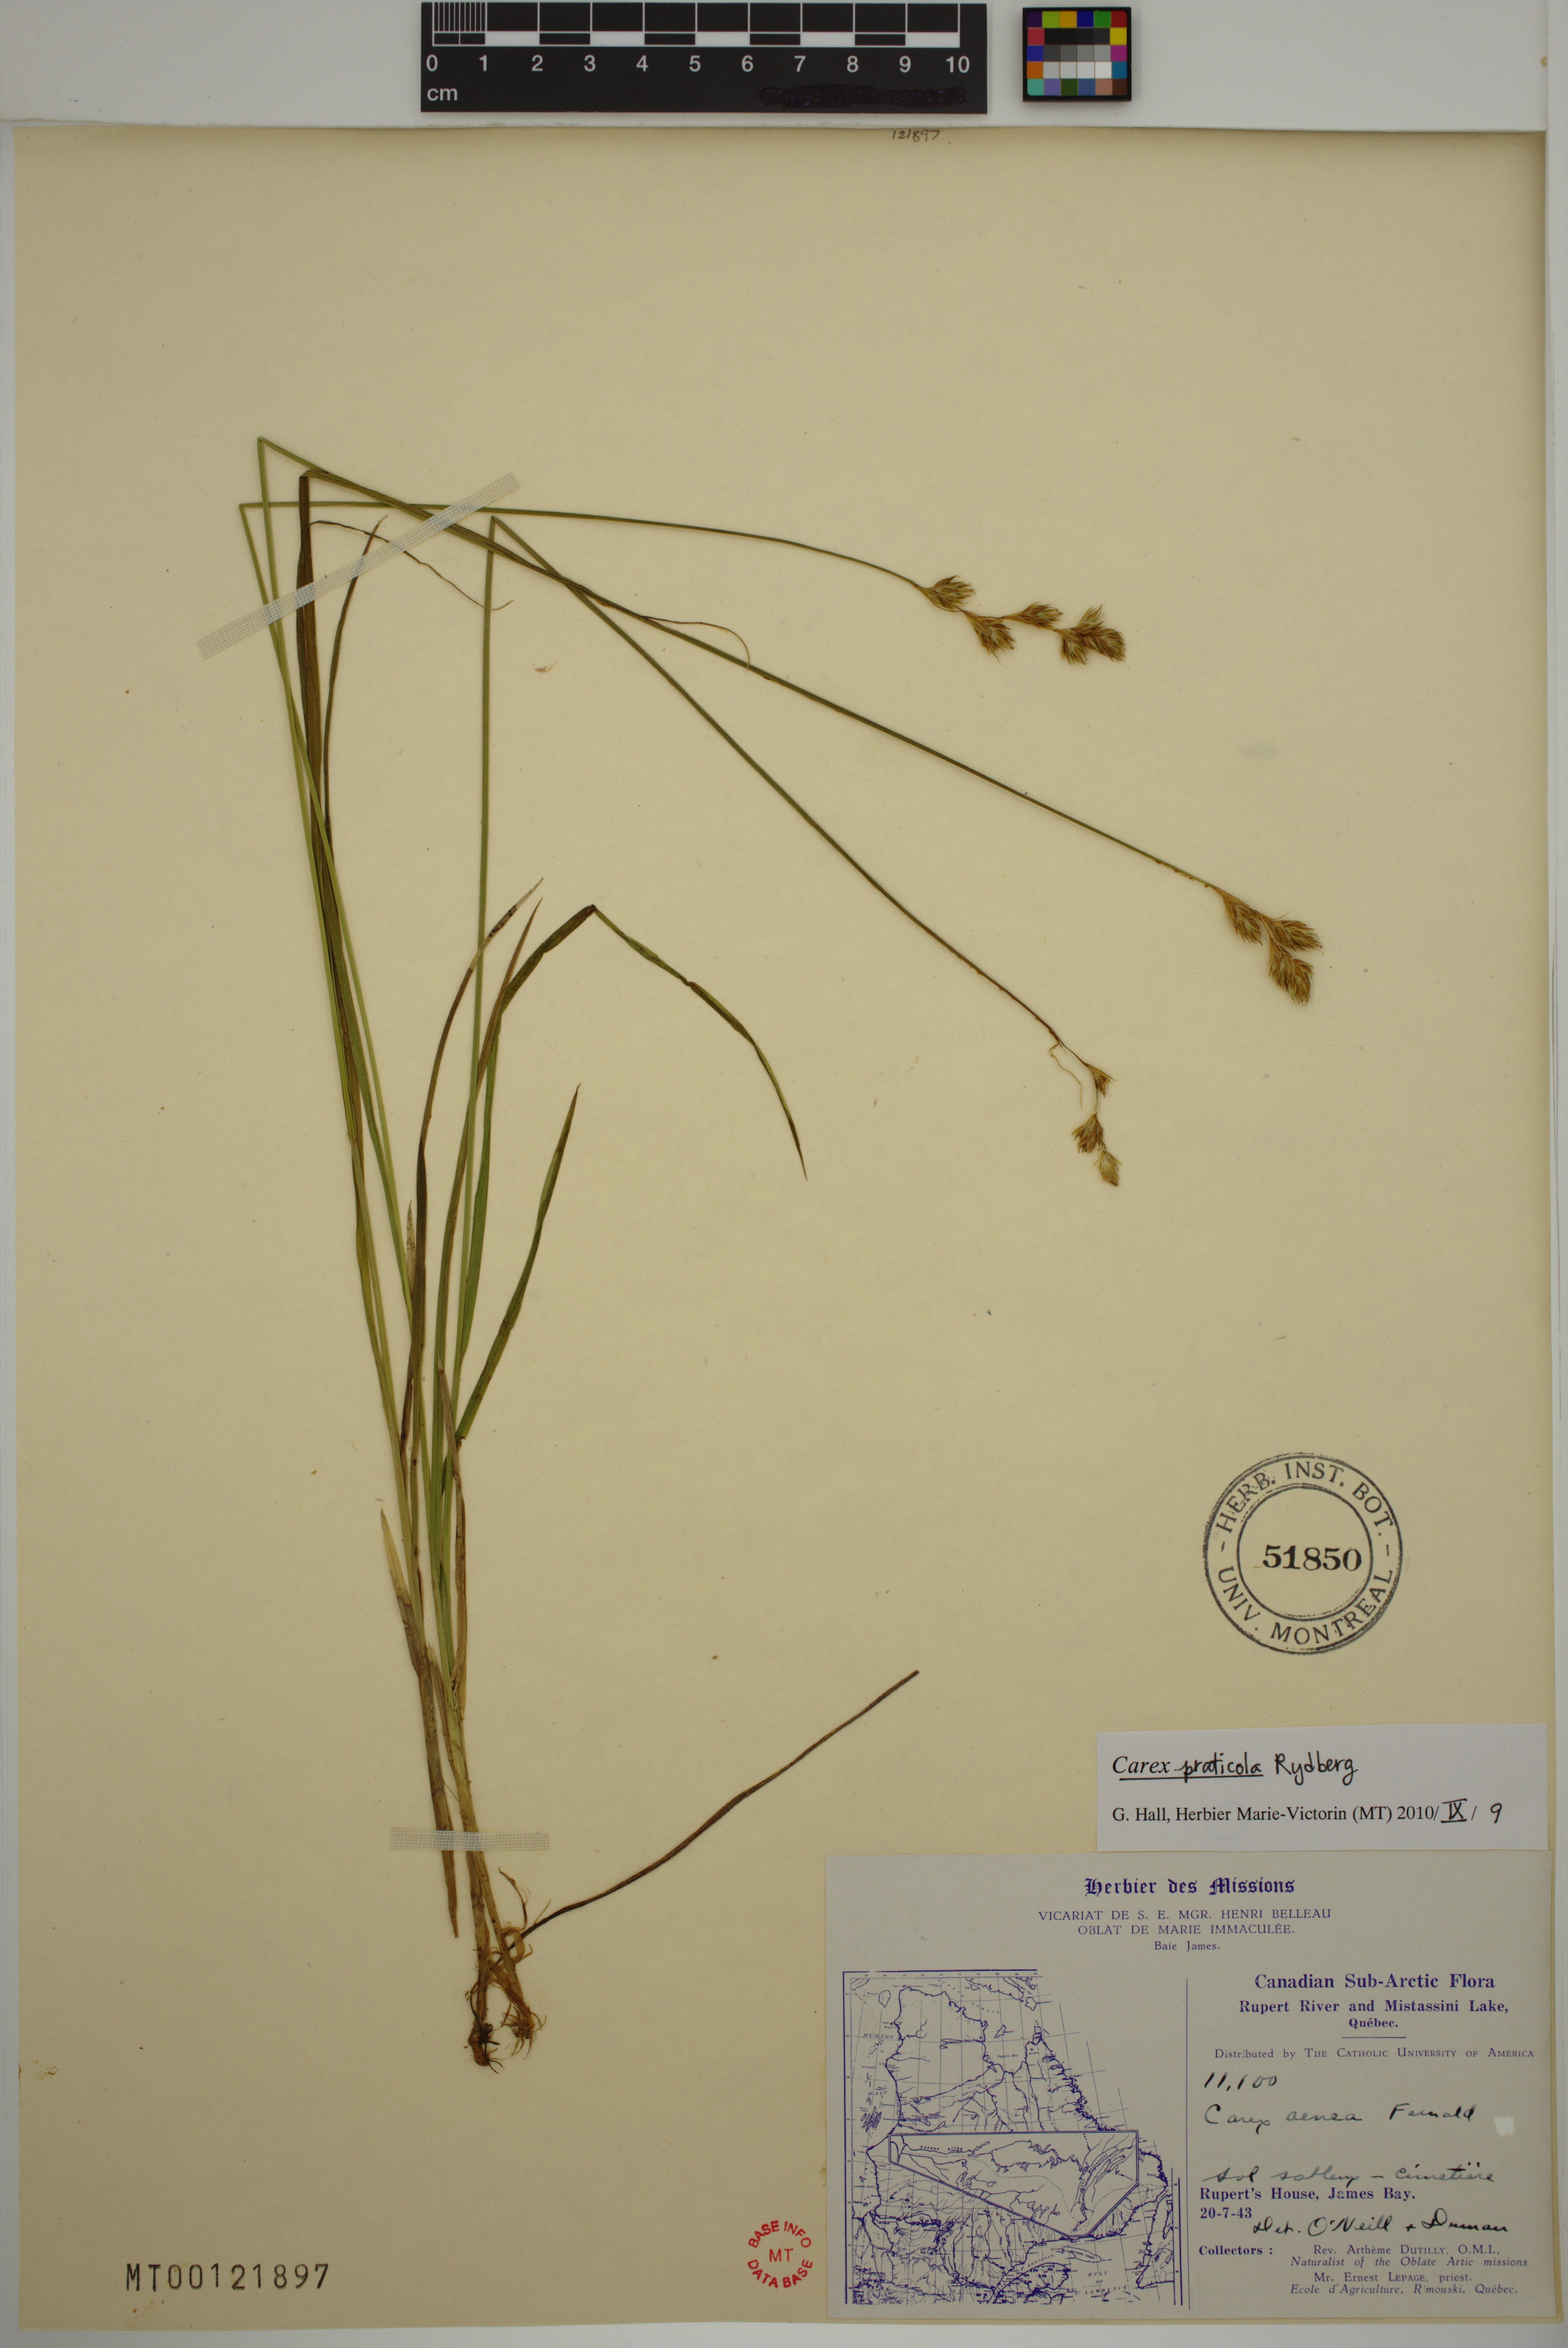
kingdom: Plantae
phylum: Tracheophyta
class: Liliopsida
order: Poales
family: Cyperaceae
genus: Carex
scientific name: Carex praticola
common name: Large-fruited oval sedge
